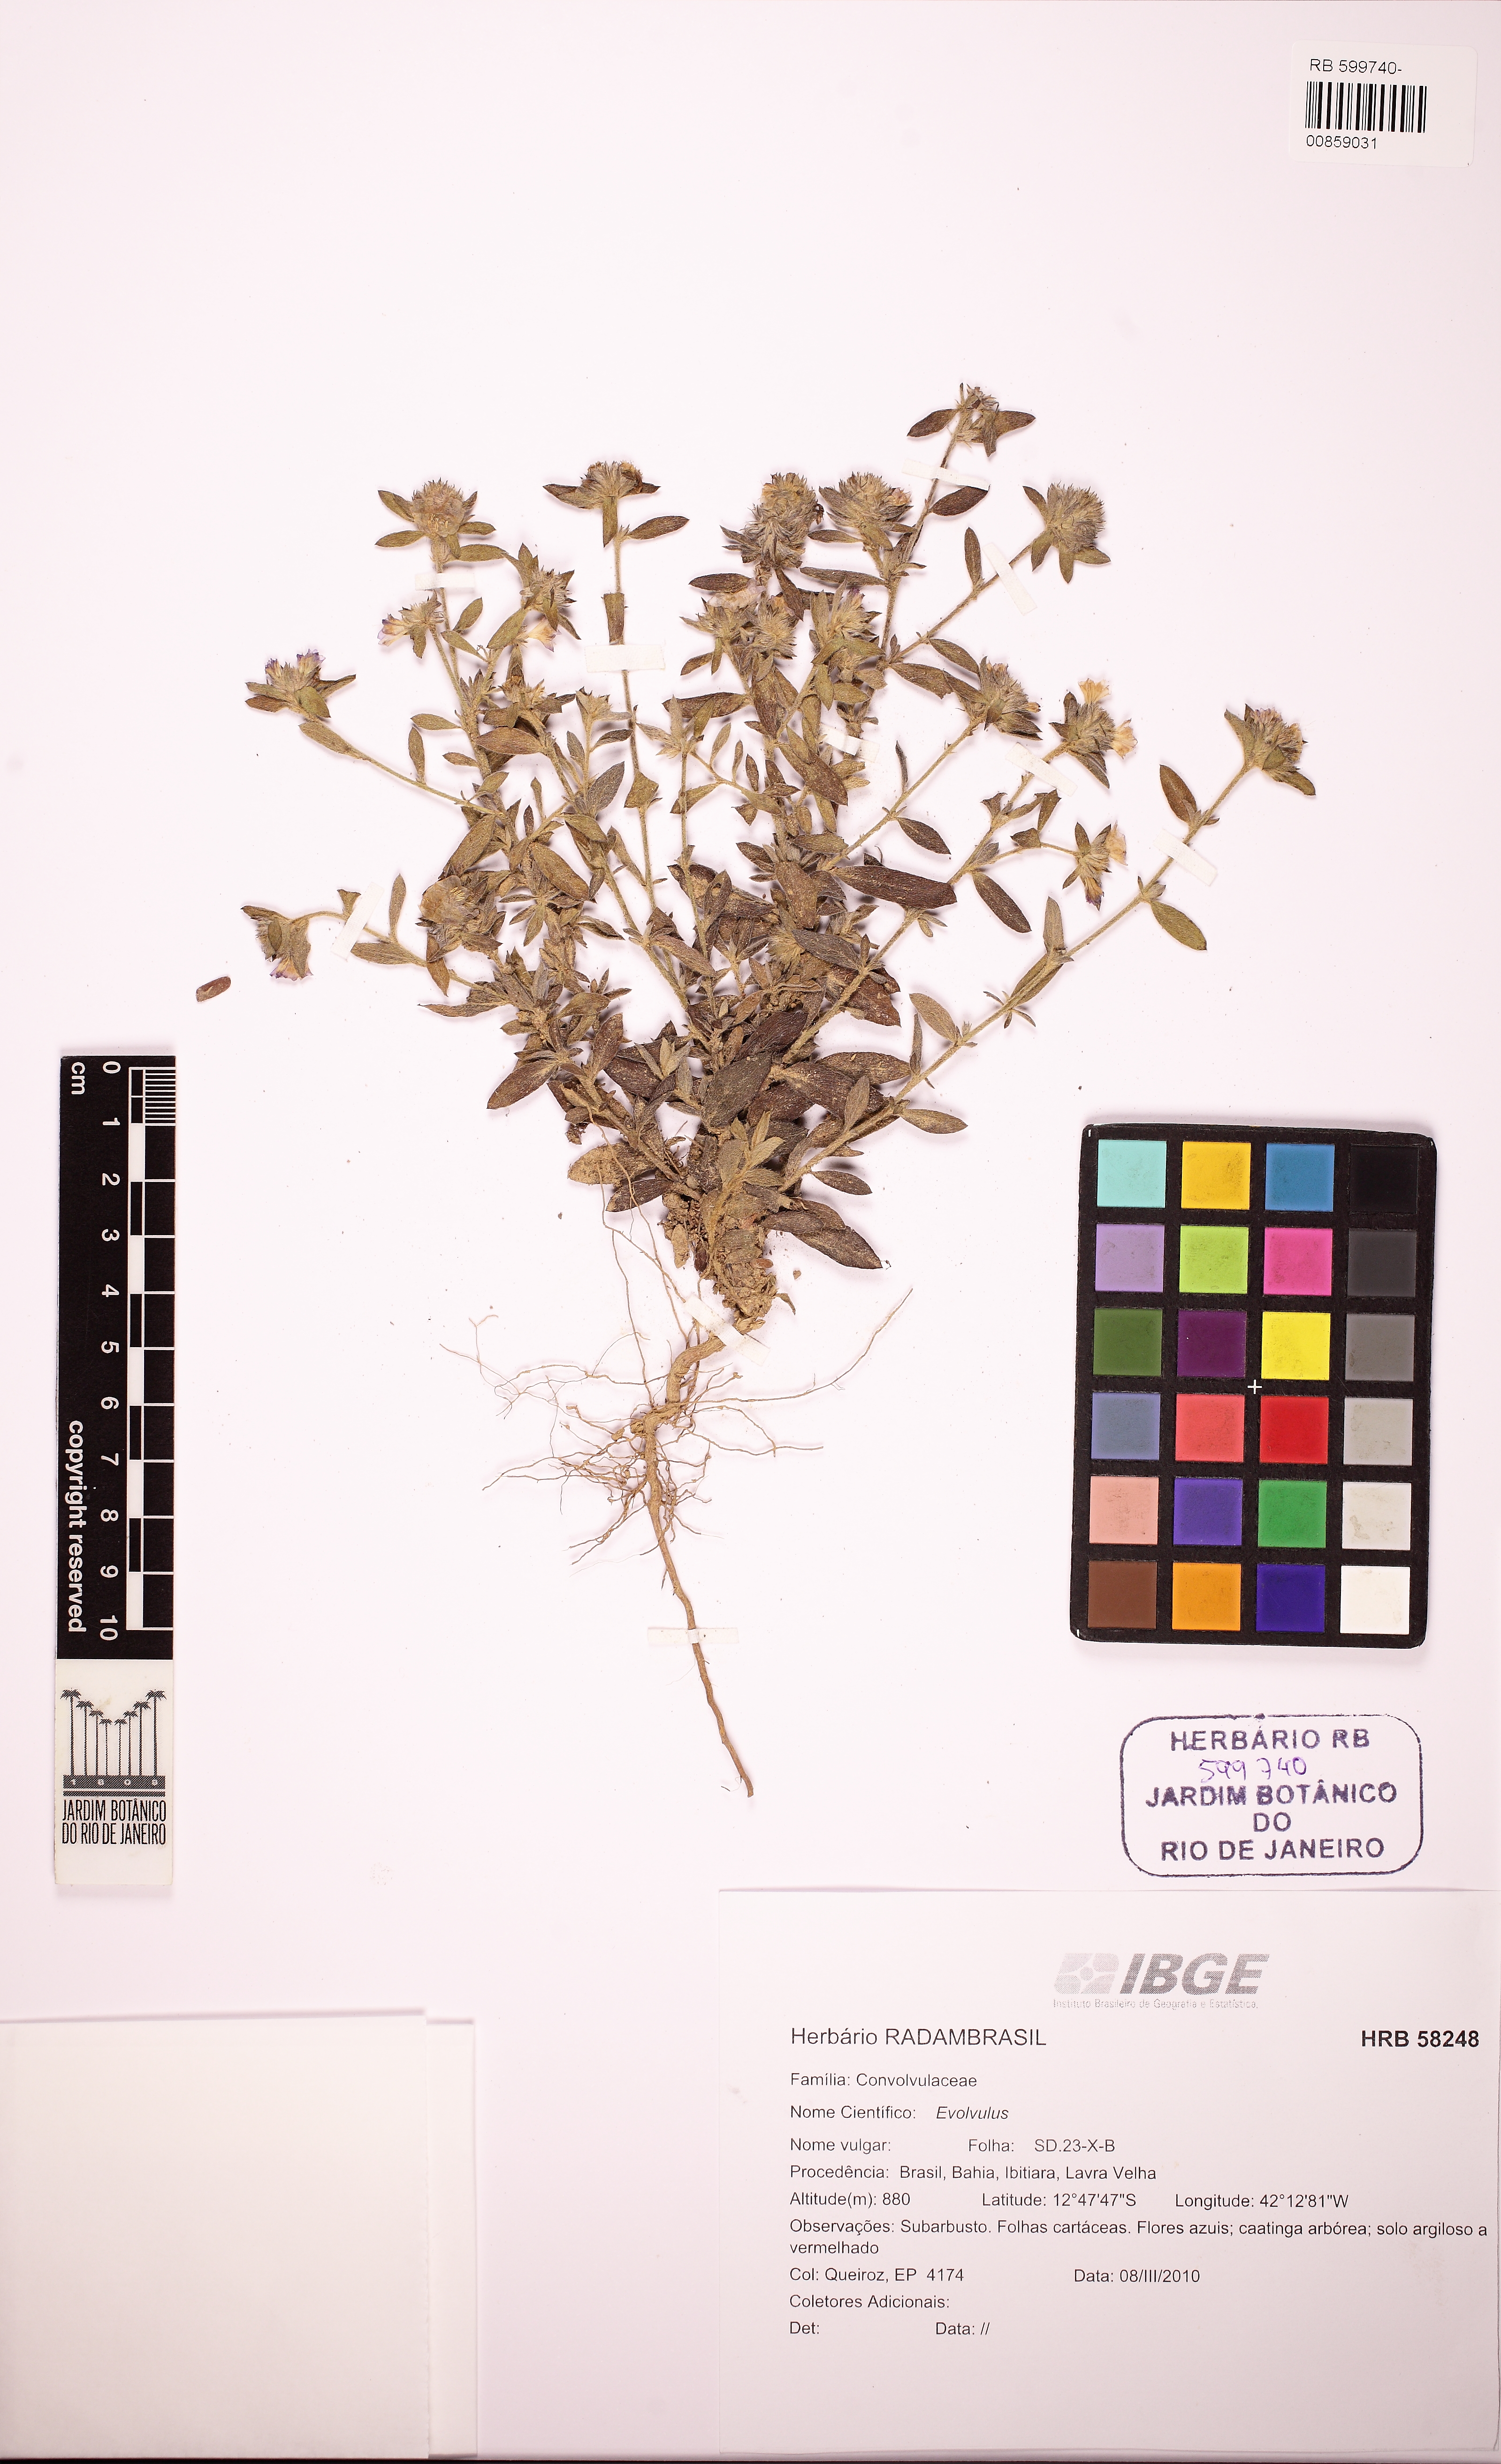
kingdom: Plantae
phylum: Tracheophyta
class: Magnoliopsida
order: Solanales
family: Convolvulaceae
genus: Evolvulus
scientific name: Evolvulus
